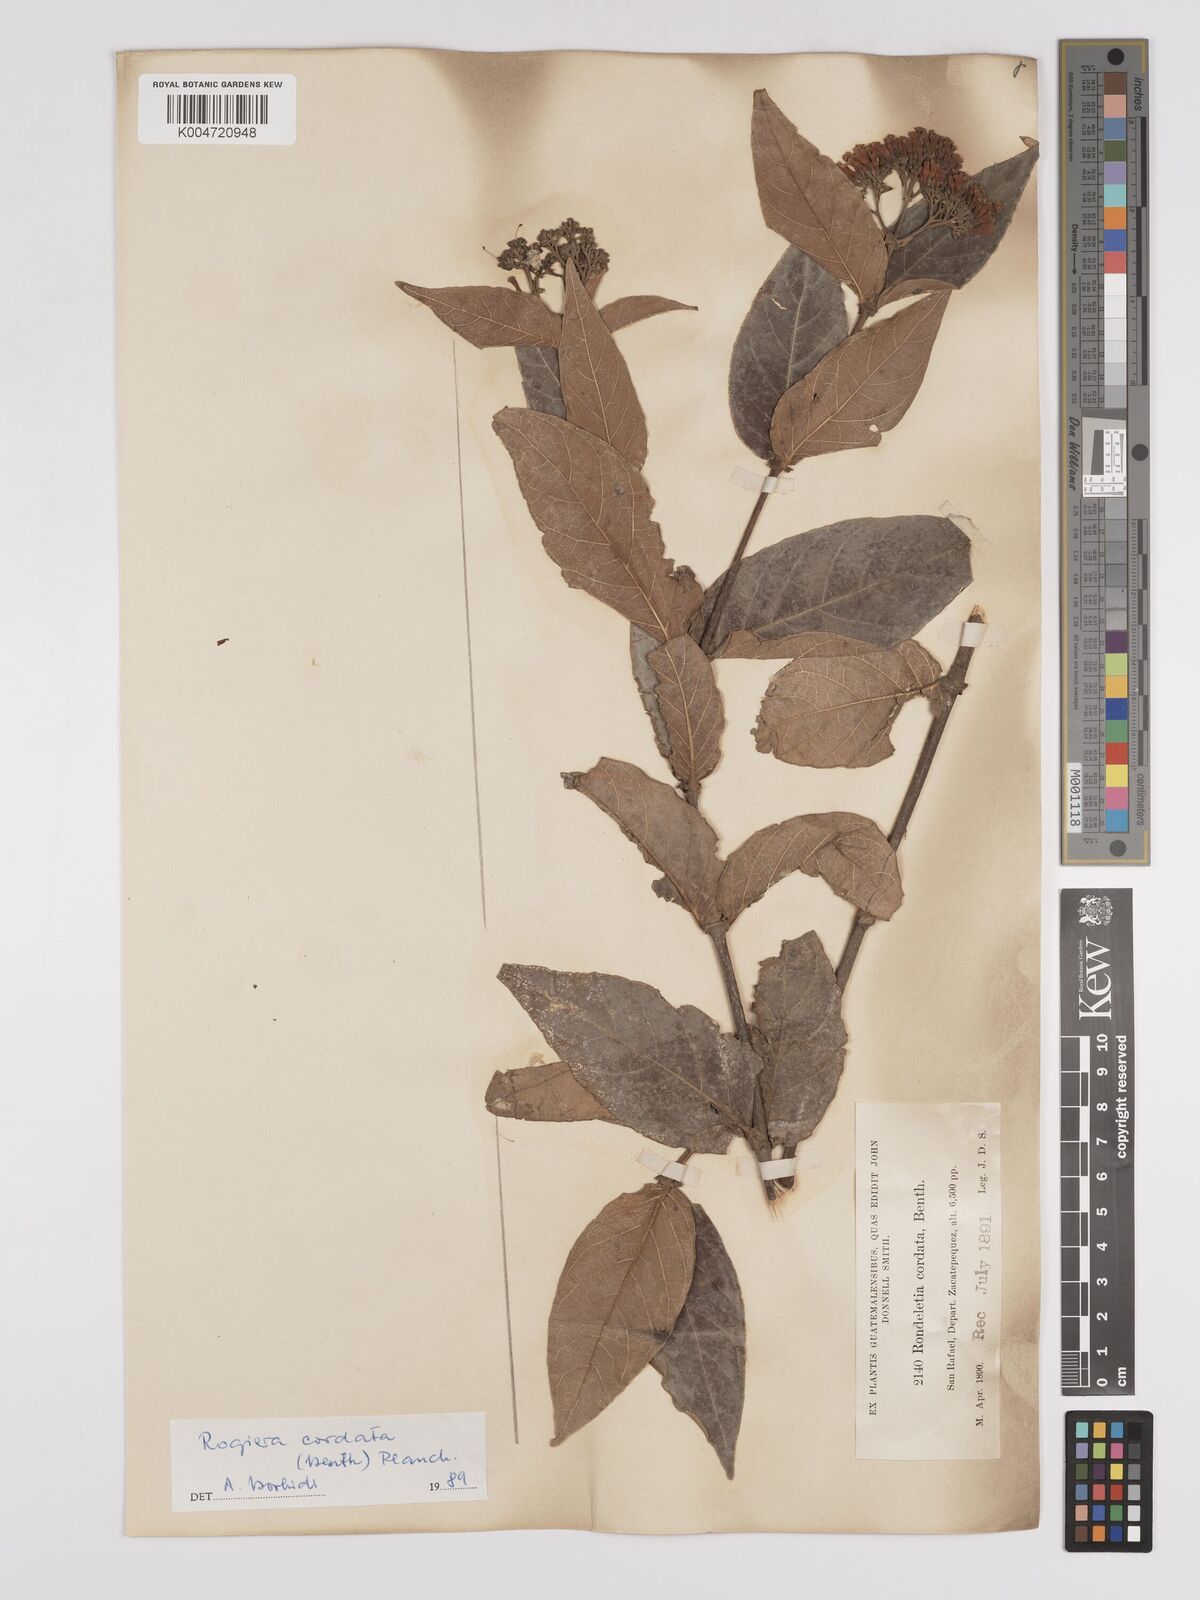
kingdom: Plantae
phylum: Tracheophyta
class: Magnoliopsida
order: Gentianales
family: Rubiaceae
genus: Rogiera
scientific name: Rogiera cordata
